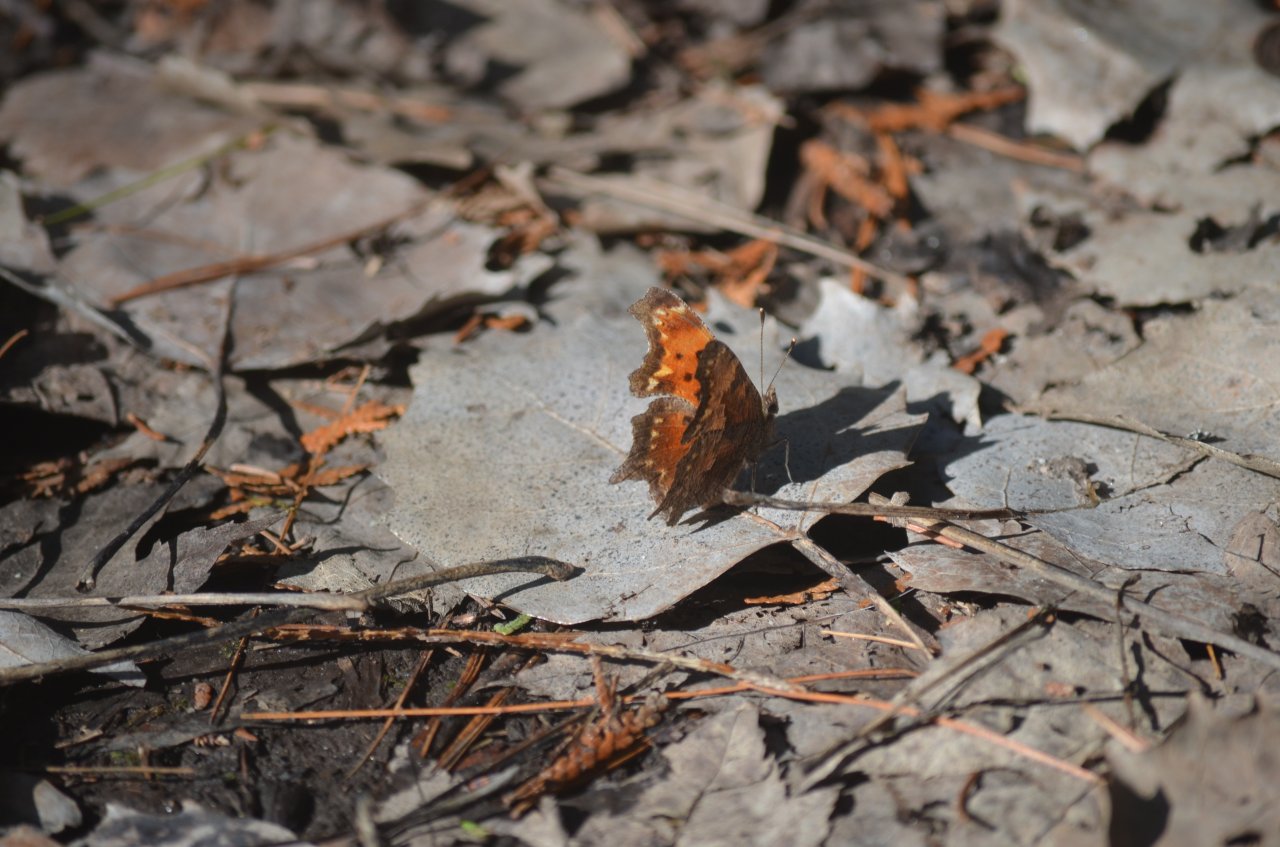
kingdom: Animalia
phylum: Arthropoda
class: Insecta
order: Lepidoptera
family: Nymphalidae
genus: Polygonia
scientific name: Polygonia progne
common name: Gray Comma
